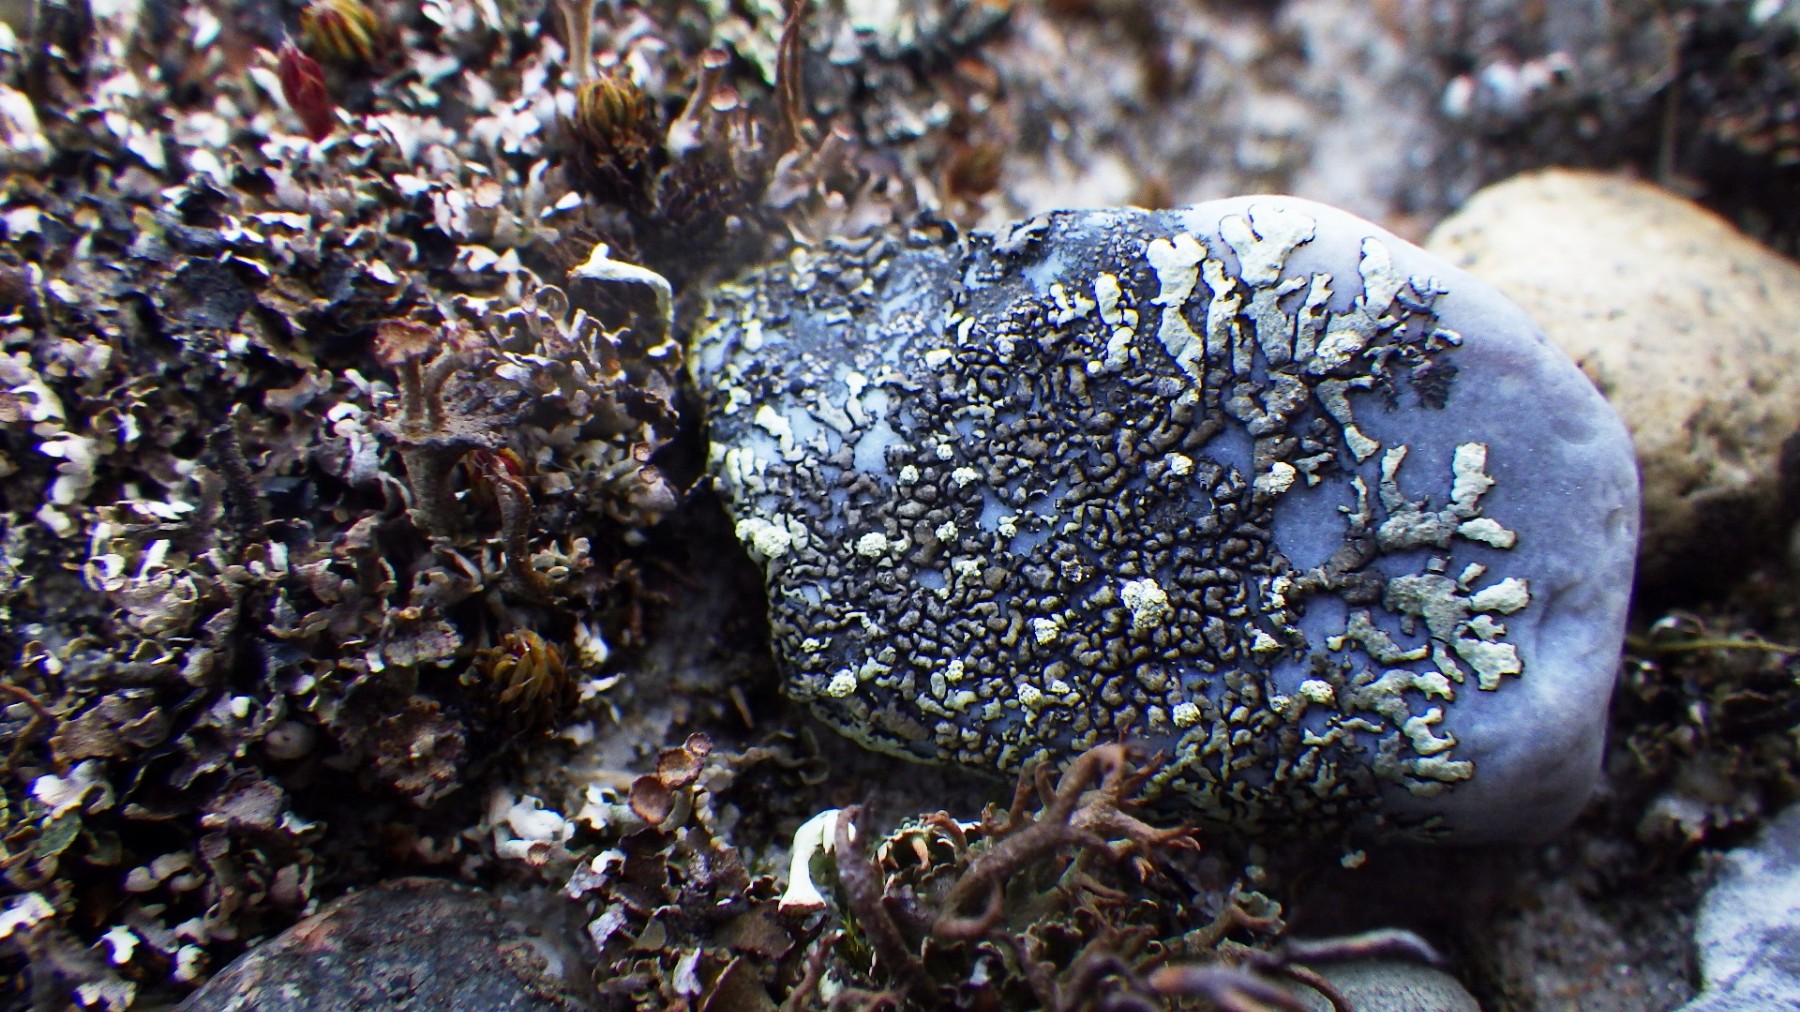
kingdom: Fungi
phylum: Ascomycota
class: Lecanoromycetes
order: Lecanorales
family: Parmeliaceae
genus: Xanthoparmelia
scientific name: Xanthoparmelia mougeotii
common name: liden skållav
